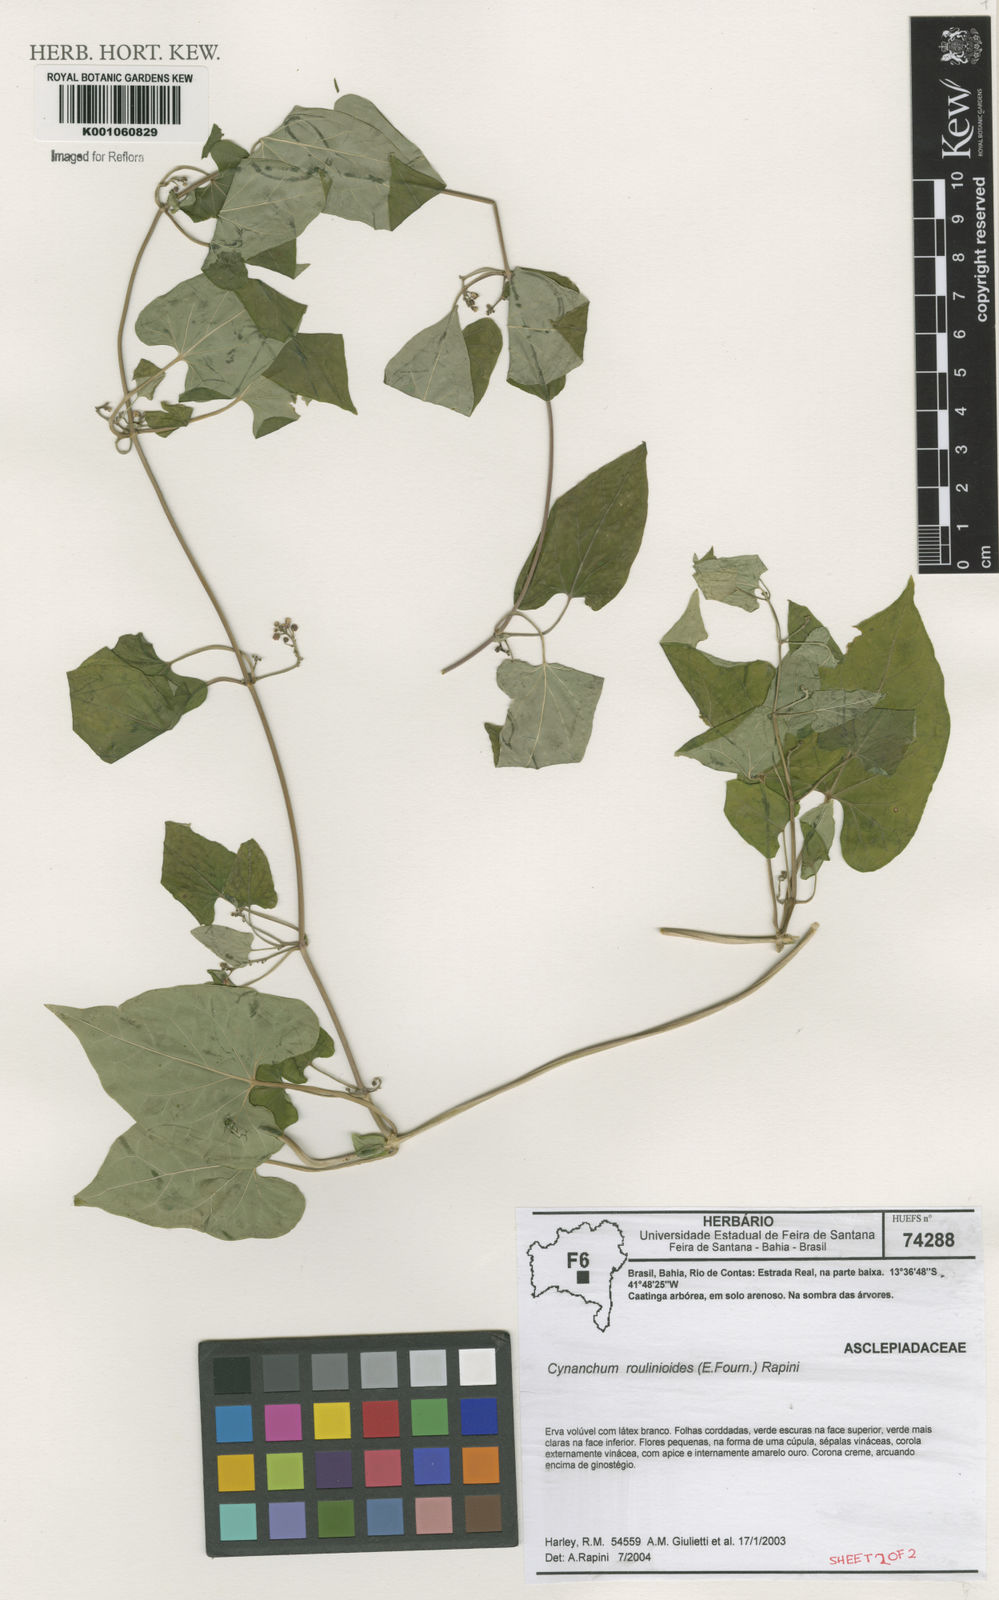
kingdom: Plantae
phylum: Tracheophyta
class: Magnoliopsida
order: Gentianales
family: Apocynaceae
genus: Cynanchum
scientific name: Cynanchum roulinioides
